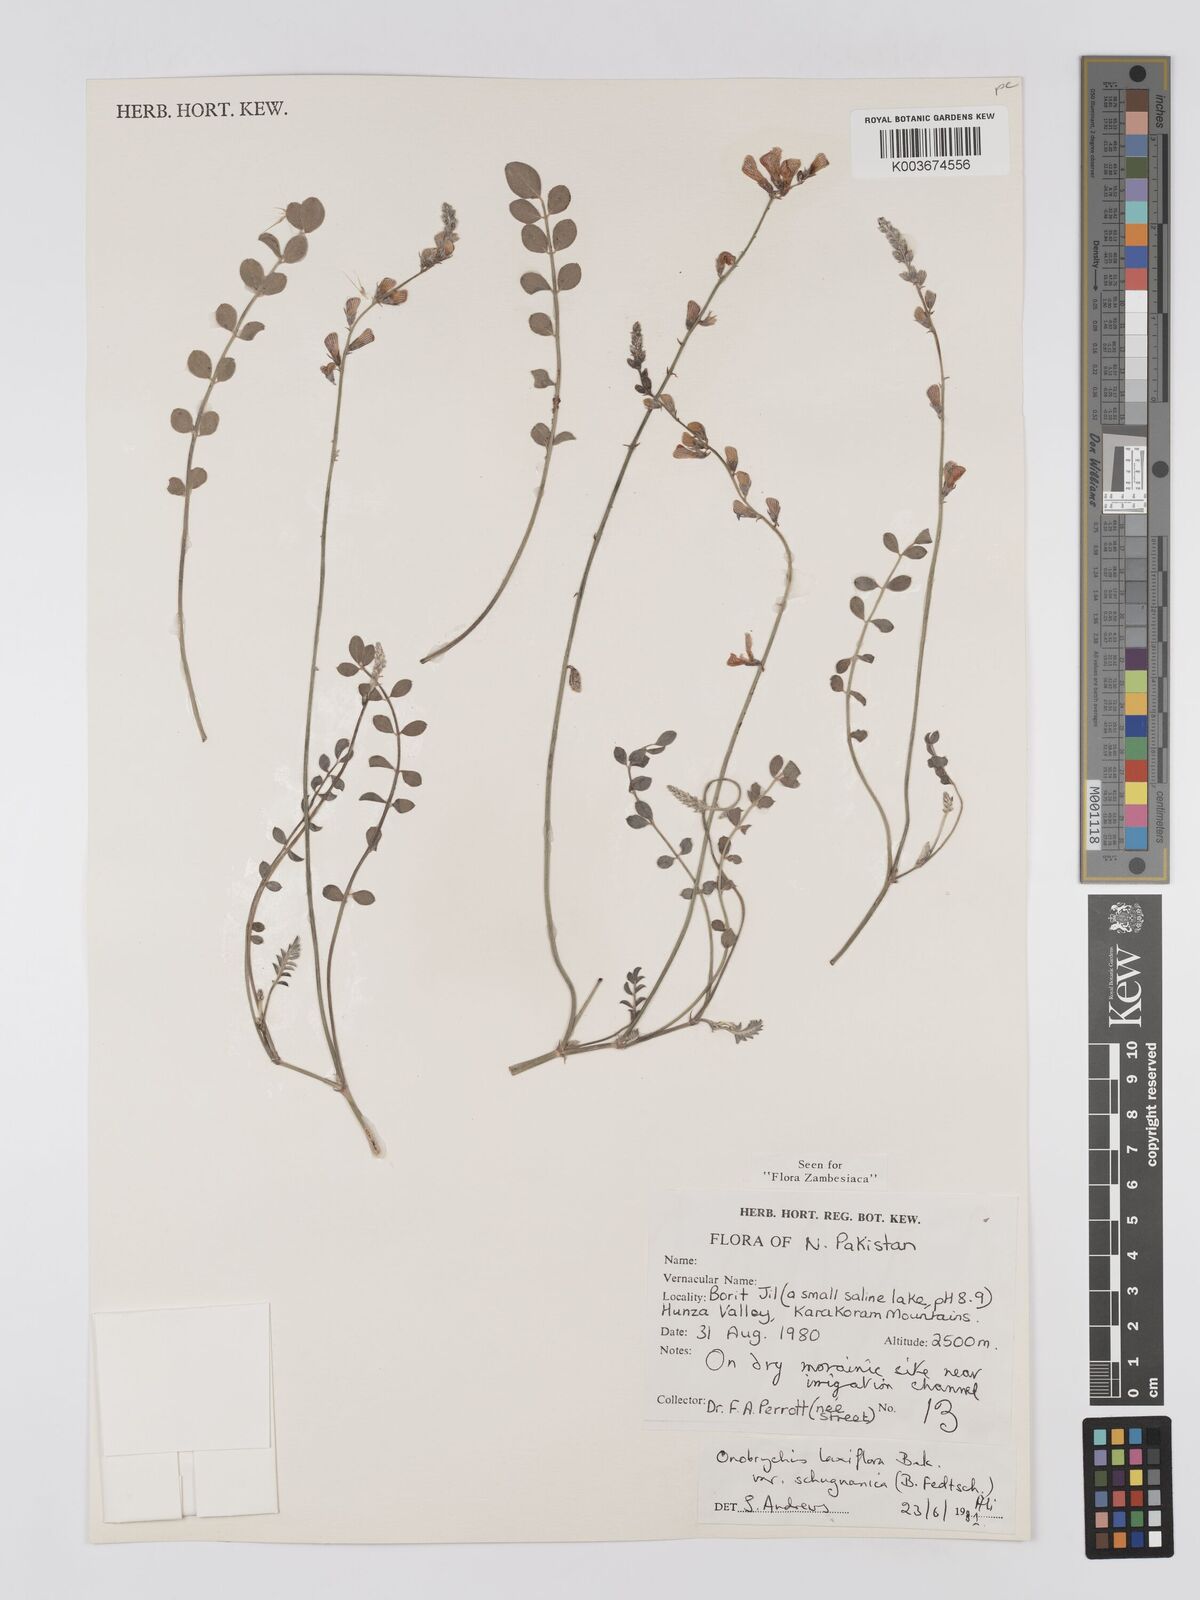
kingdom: Plantae
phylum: Tracheophyta
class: Magnoliopsida
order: Fabales
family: Fabaceae
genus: Onobrychis
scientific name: Onobrychis laxiflora
